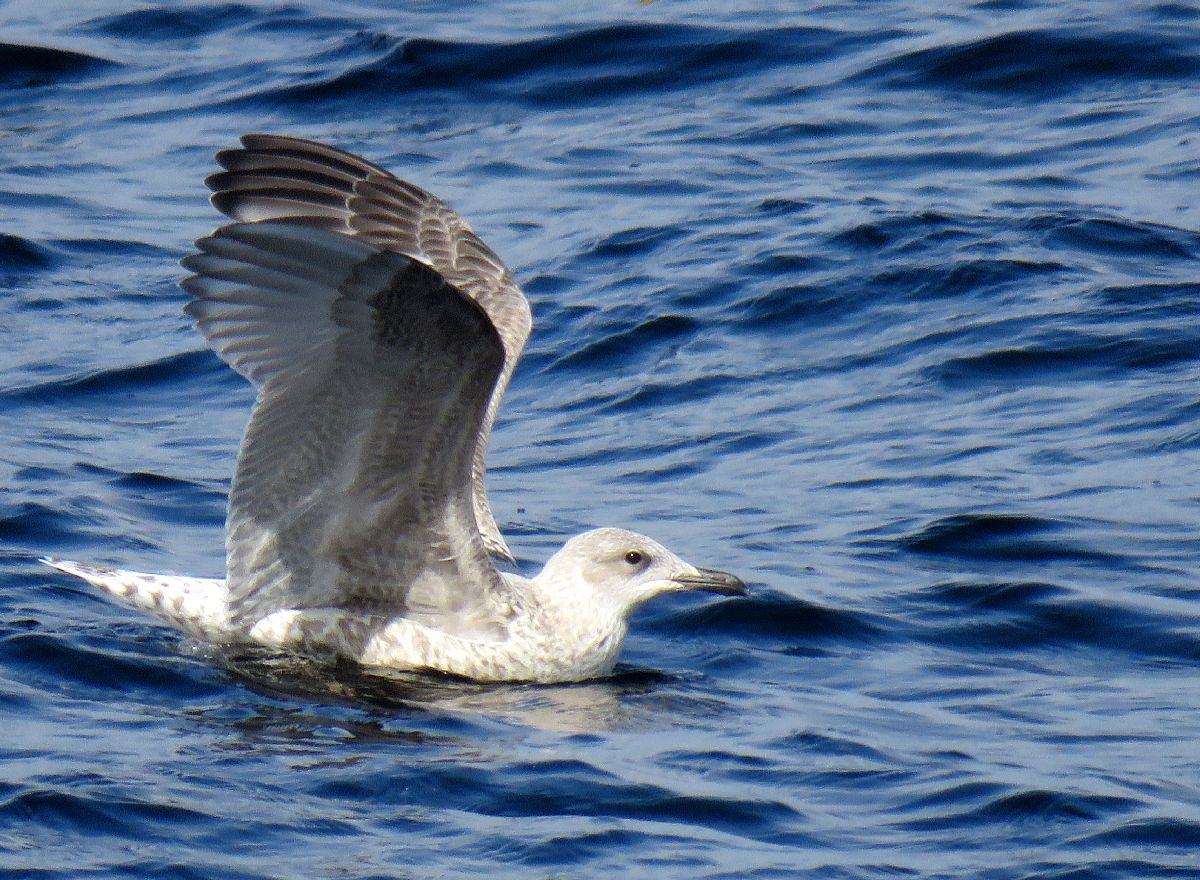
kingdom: Animalia
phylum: Chordata
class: Aves
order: Charadriiformes
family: Laridae
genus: Larus
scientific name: Larus marinus
